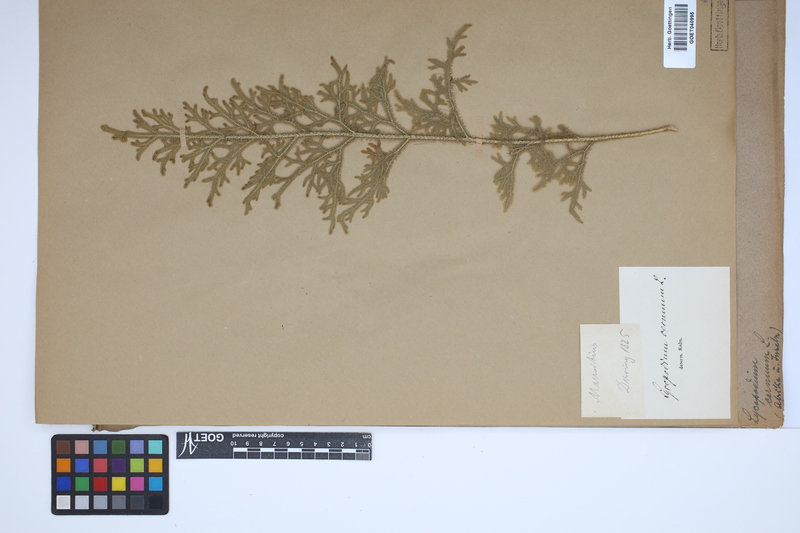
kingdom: Plantae
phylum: Tracheophyta
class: Lycopodiopsida
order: Lycopodiales
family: Lycopodiaceae
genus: Palhinhaea
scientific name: Palhinhaea cernua
